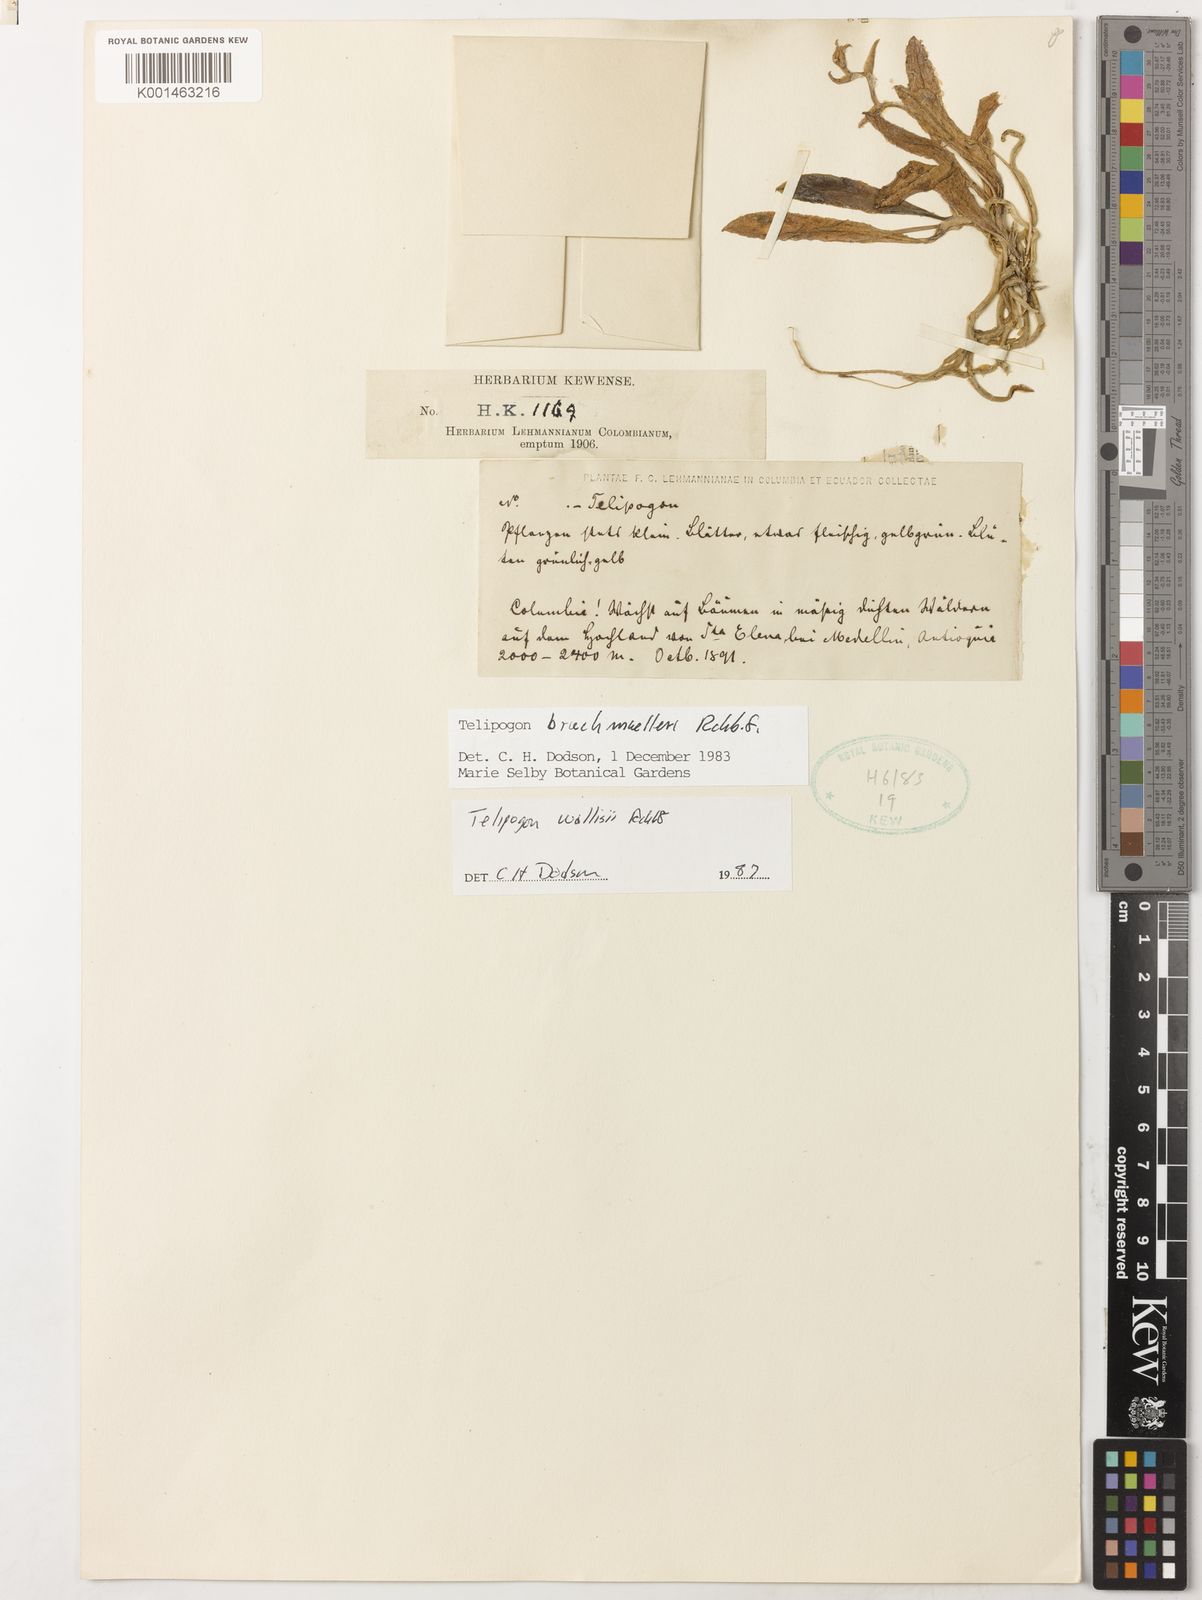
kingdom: Plantae
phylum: Tracheophyta
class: Liliopsida
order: Asparagales
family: Orchidaceae
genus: Telipogon
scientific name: Telipogon wallisii
